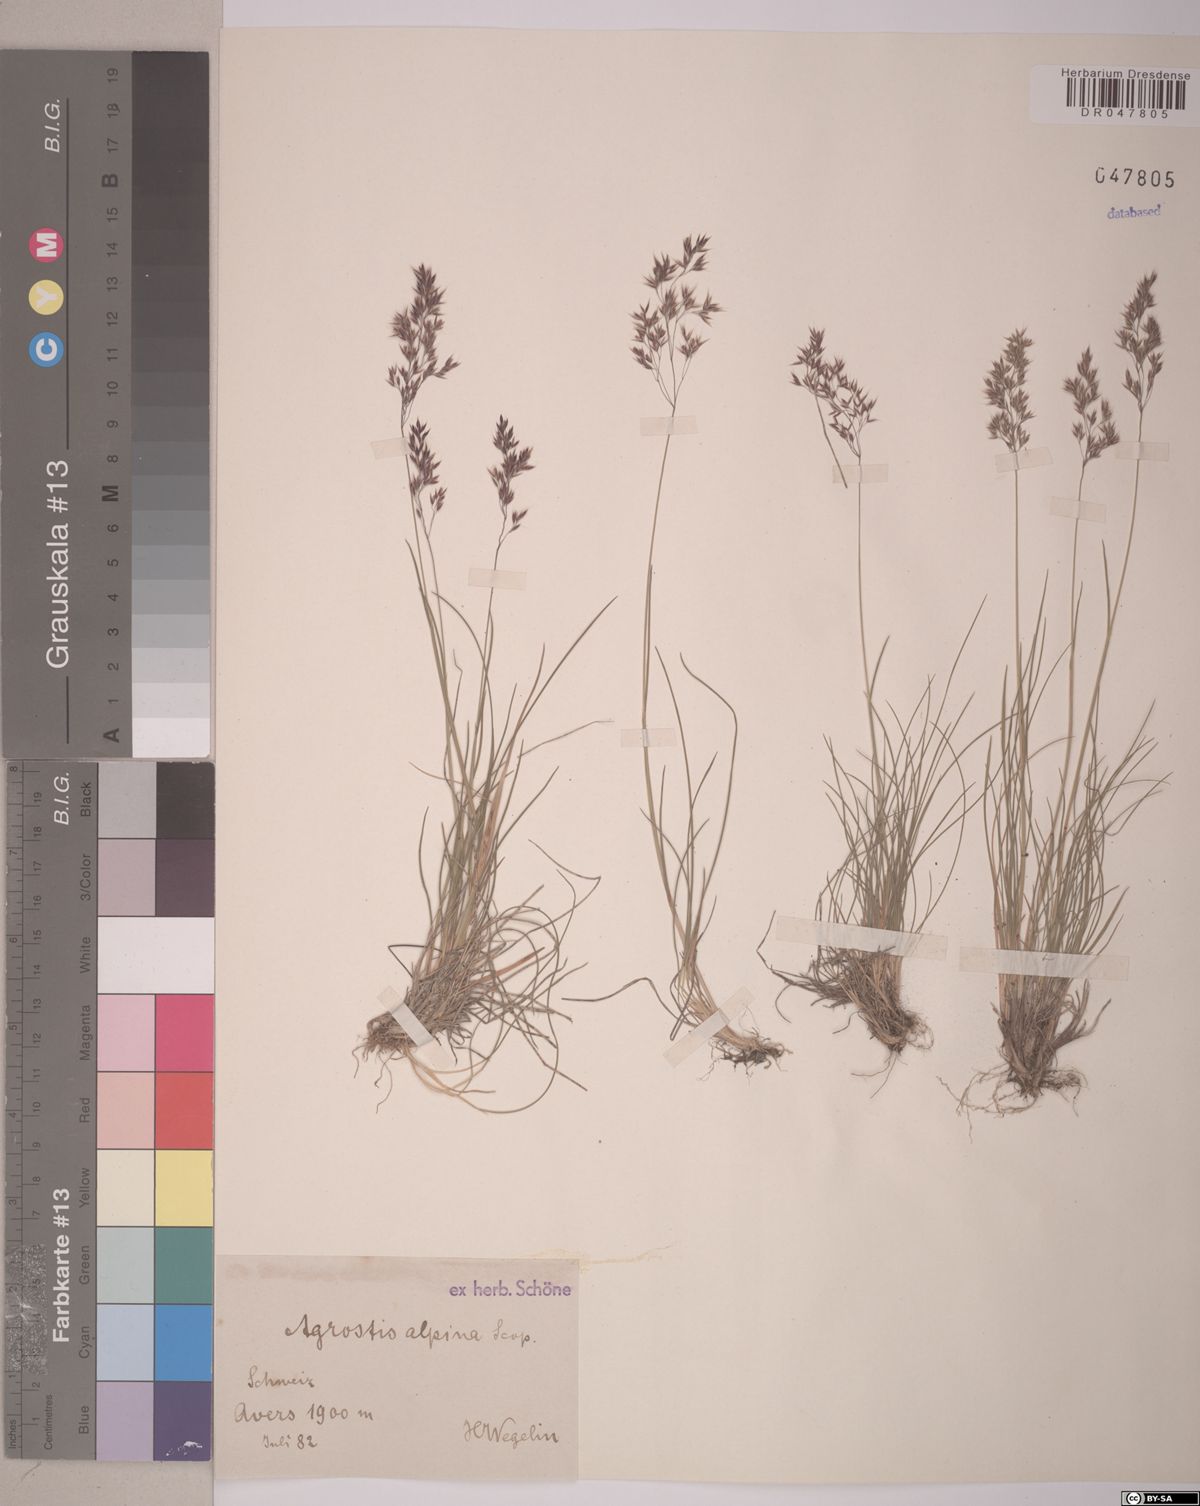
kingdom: Plantae
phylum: Tracheophyta
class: Liliopsida
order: Poales
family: Poaceae
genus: Alpagrostis
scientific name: Alpagrostis alpina
